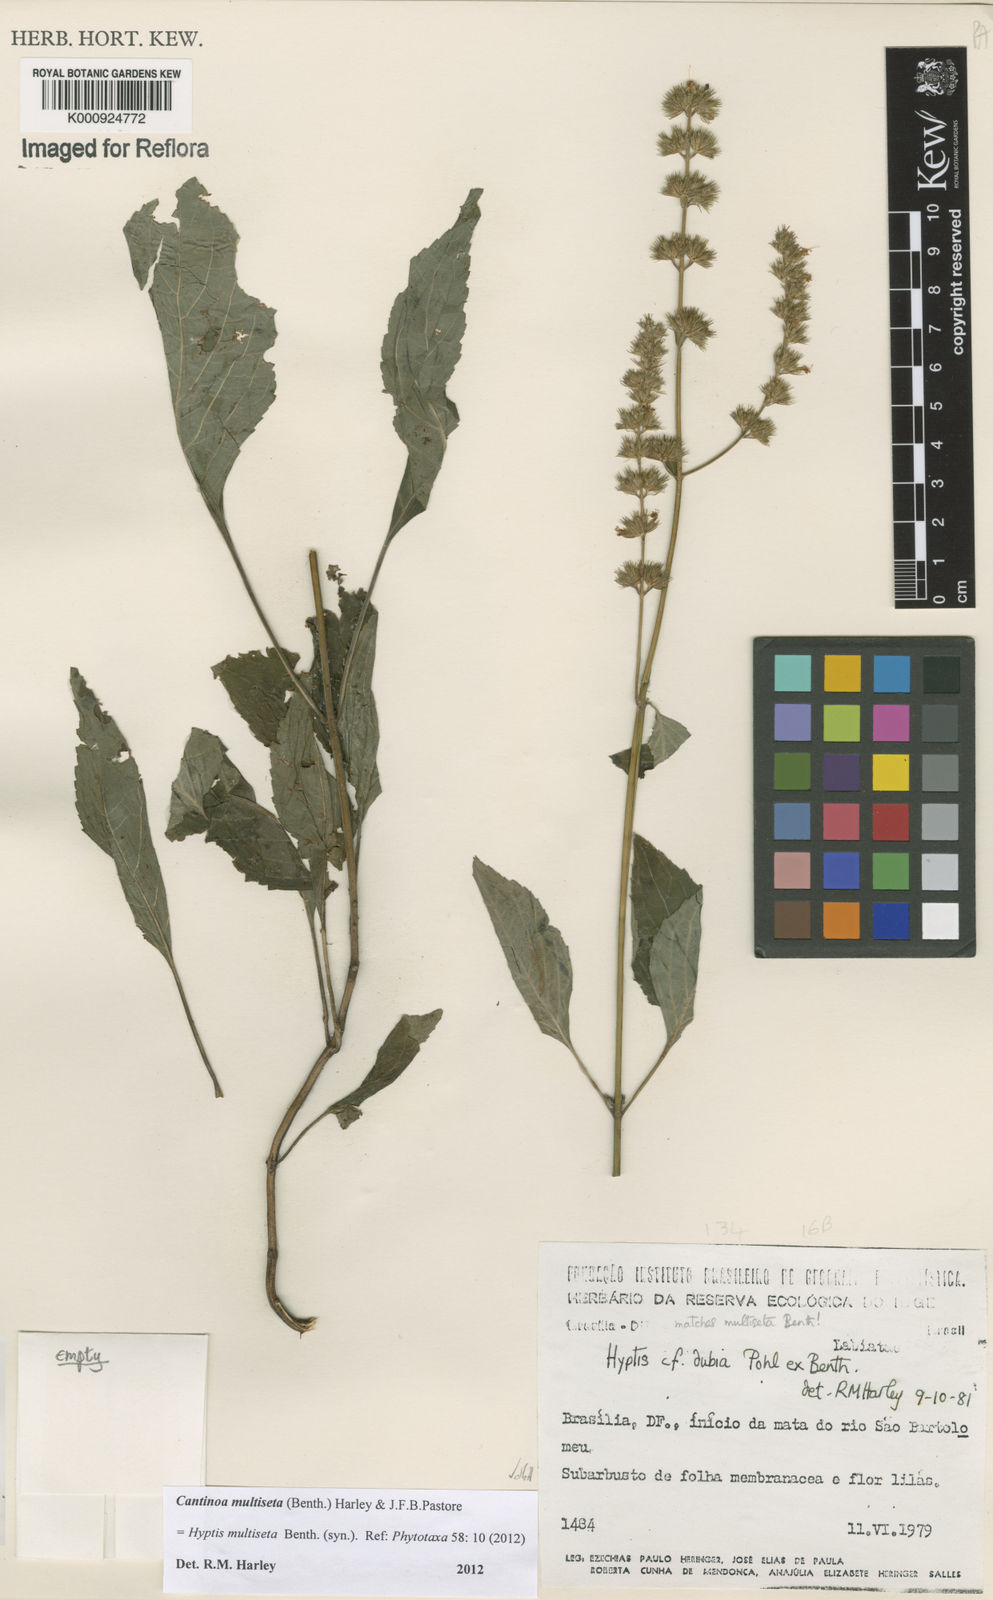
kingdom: Plantae
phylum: Tracheophyta
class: Magnoliopsida
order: Lamiales
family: Lamiaceae
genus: Cantinoa
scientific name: Cantinoa multiseta
